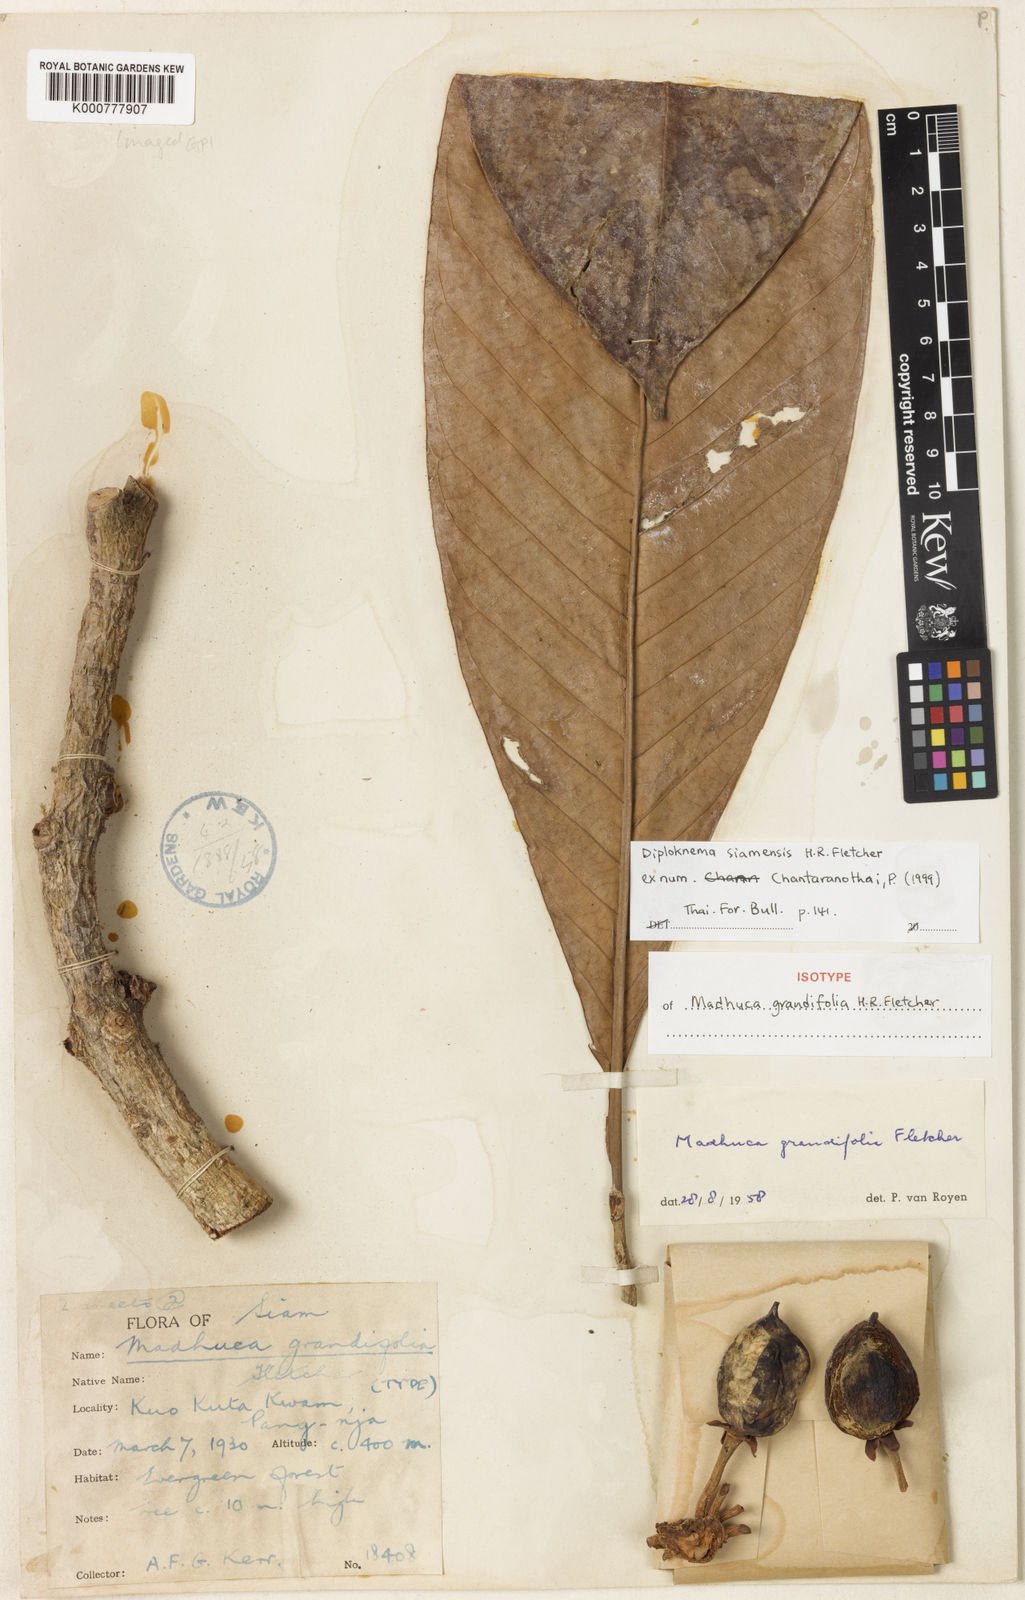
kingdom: Plantae
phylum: Tracheophyta
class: Magnoliopsida
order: Ericales
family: Sapotaceae
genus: Diploknema
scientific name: Diploknema siamensis
